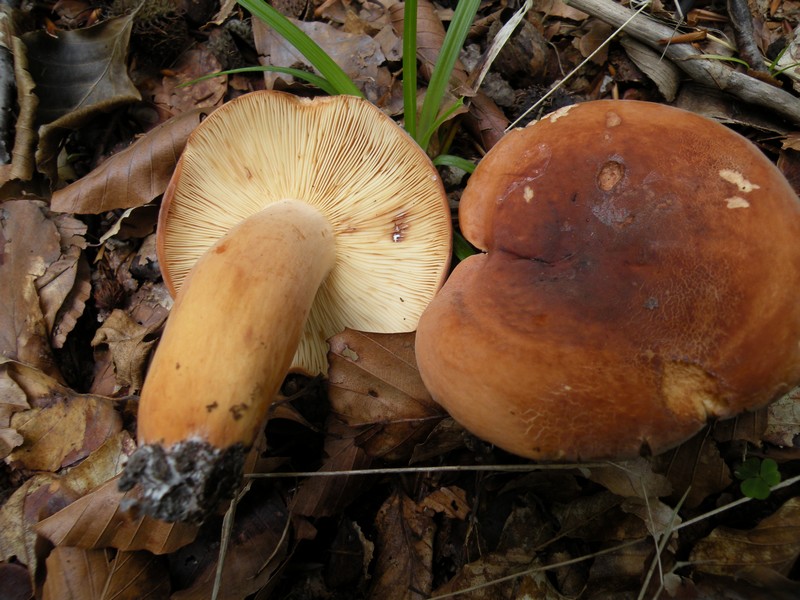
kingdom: Fungi
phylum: Basidiomycota
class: Agaricomycetes
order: Russulales
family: Russulaceae
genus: Lactifluus
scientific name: Lactifluus volemus
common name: spiselig mælkehat
